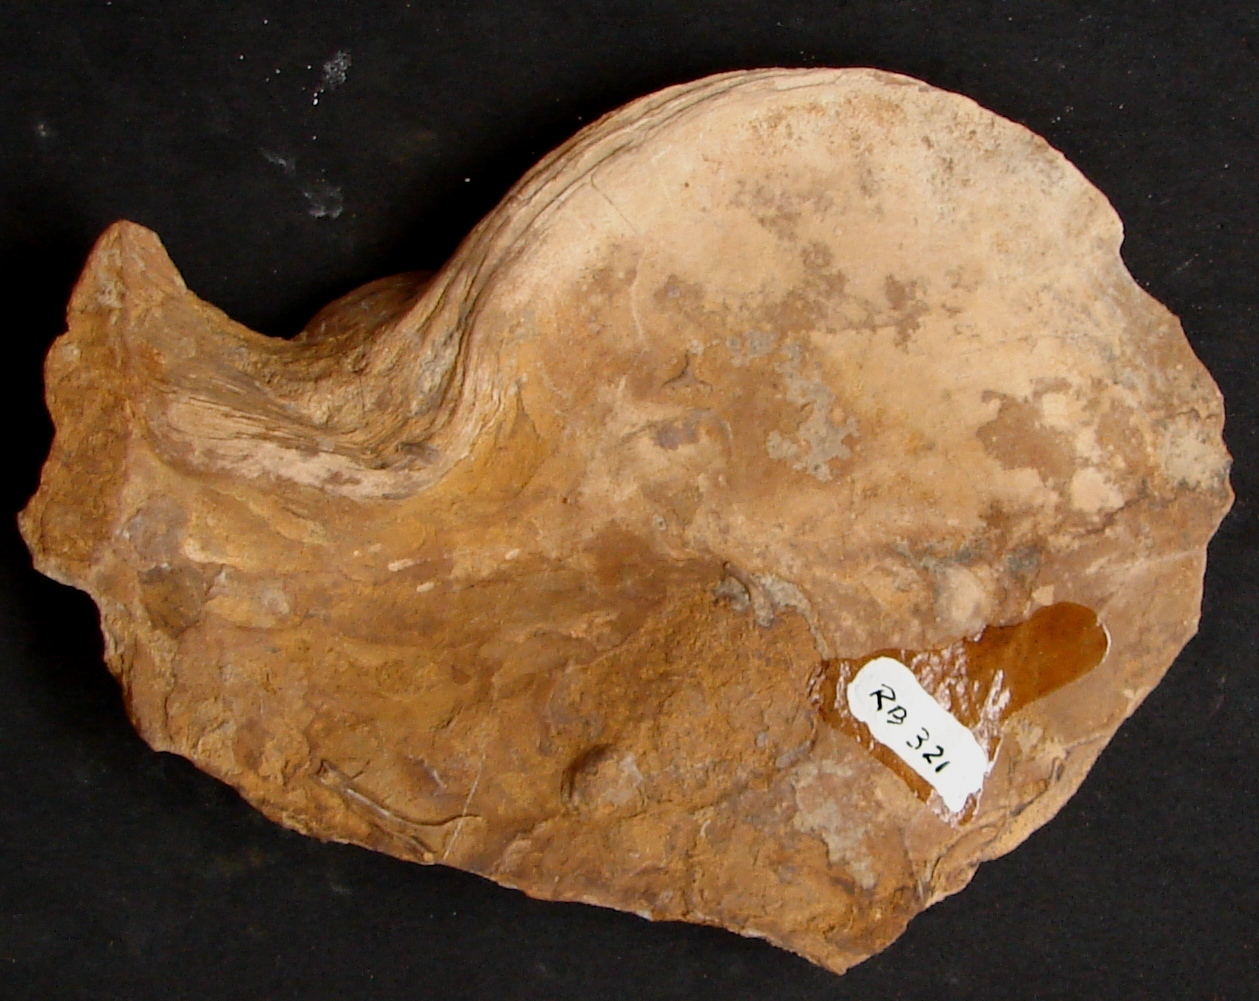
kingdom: Animalia
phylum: Mollusca
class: Bivalvia
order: Ostreida
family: Ostreidae
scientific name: Ostreidae
